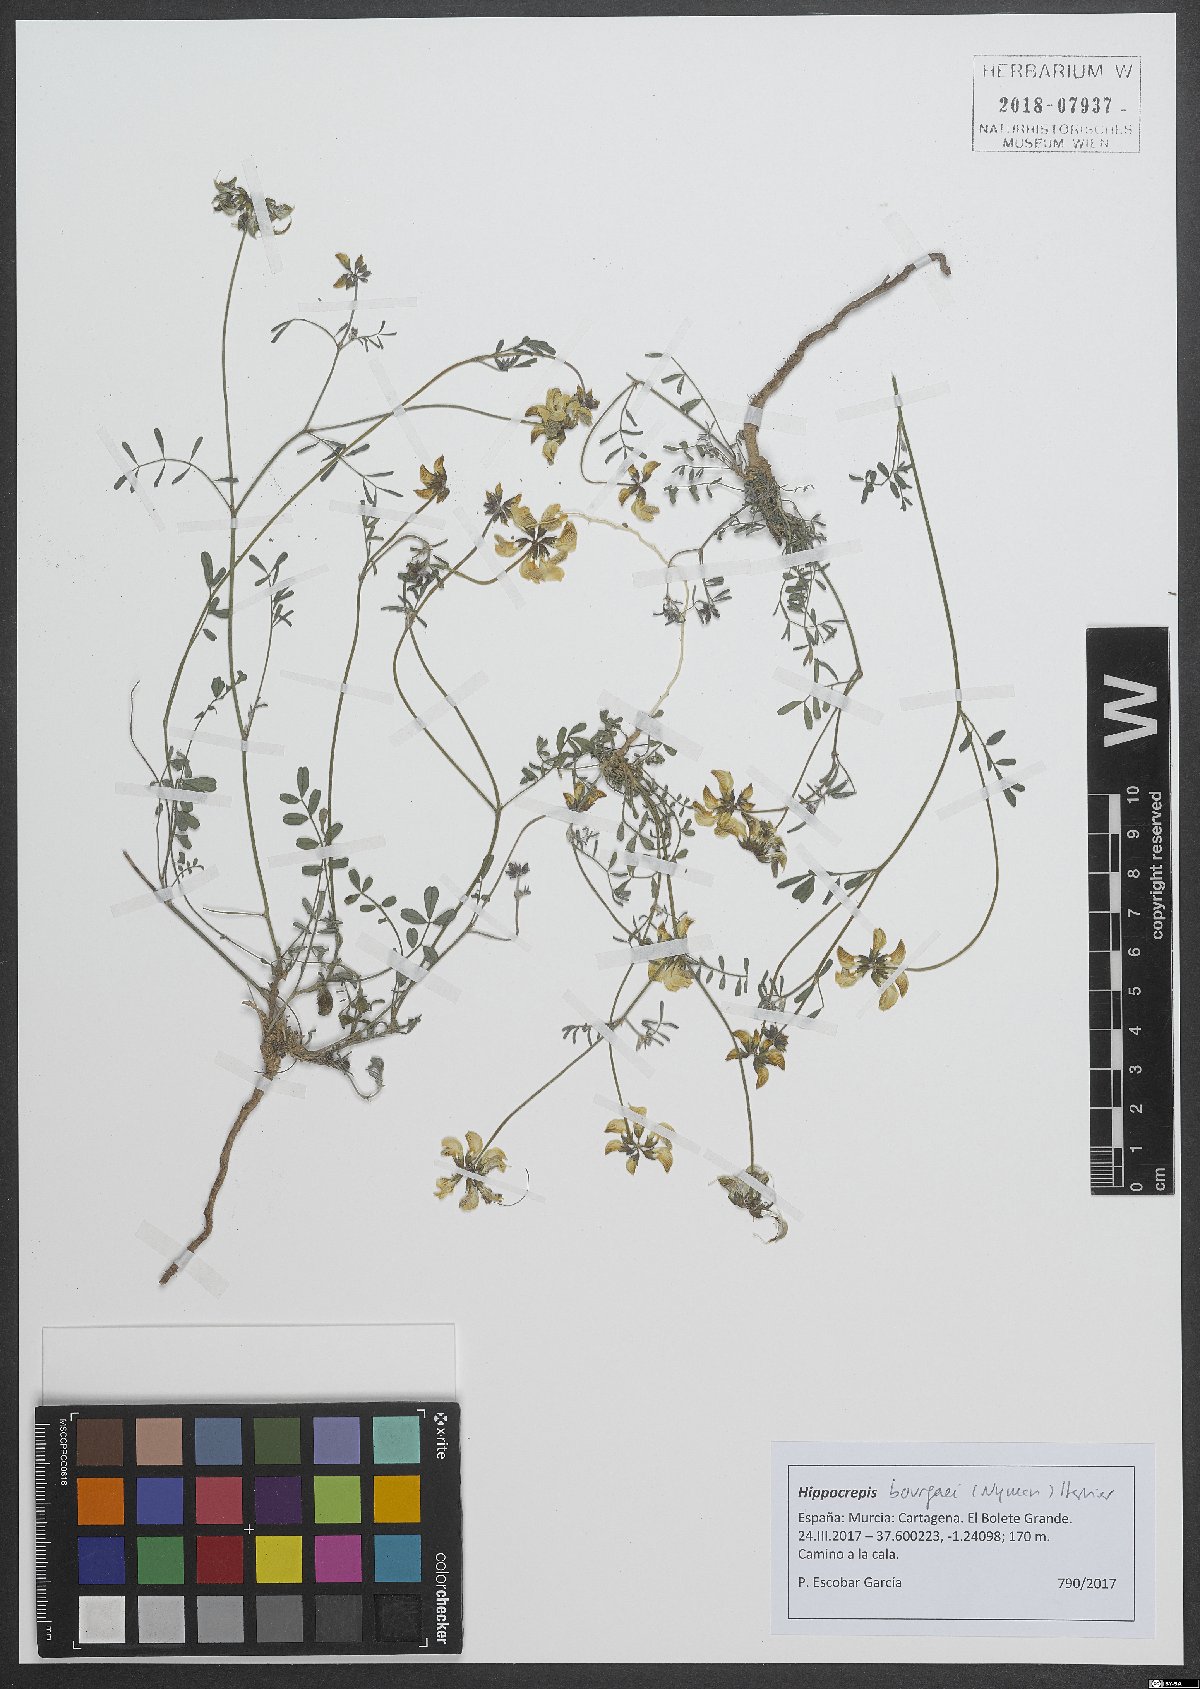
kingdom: Plantae
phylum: Tracheophyta
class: Magnoliopsida
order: Fabales
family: Fabaceae
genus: Hippocrepis
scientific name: Hippocrepis bourgaei
